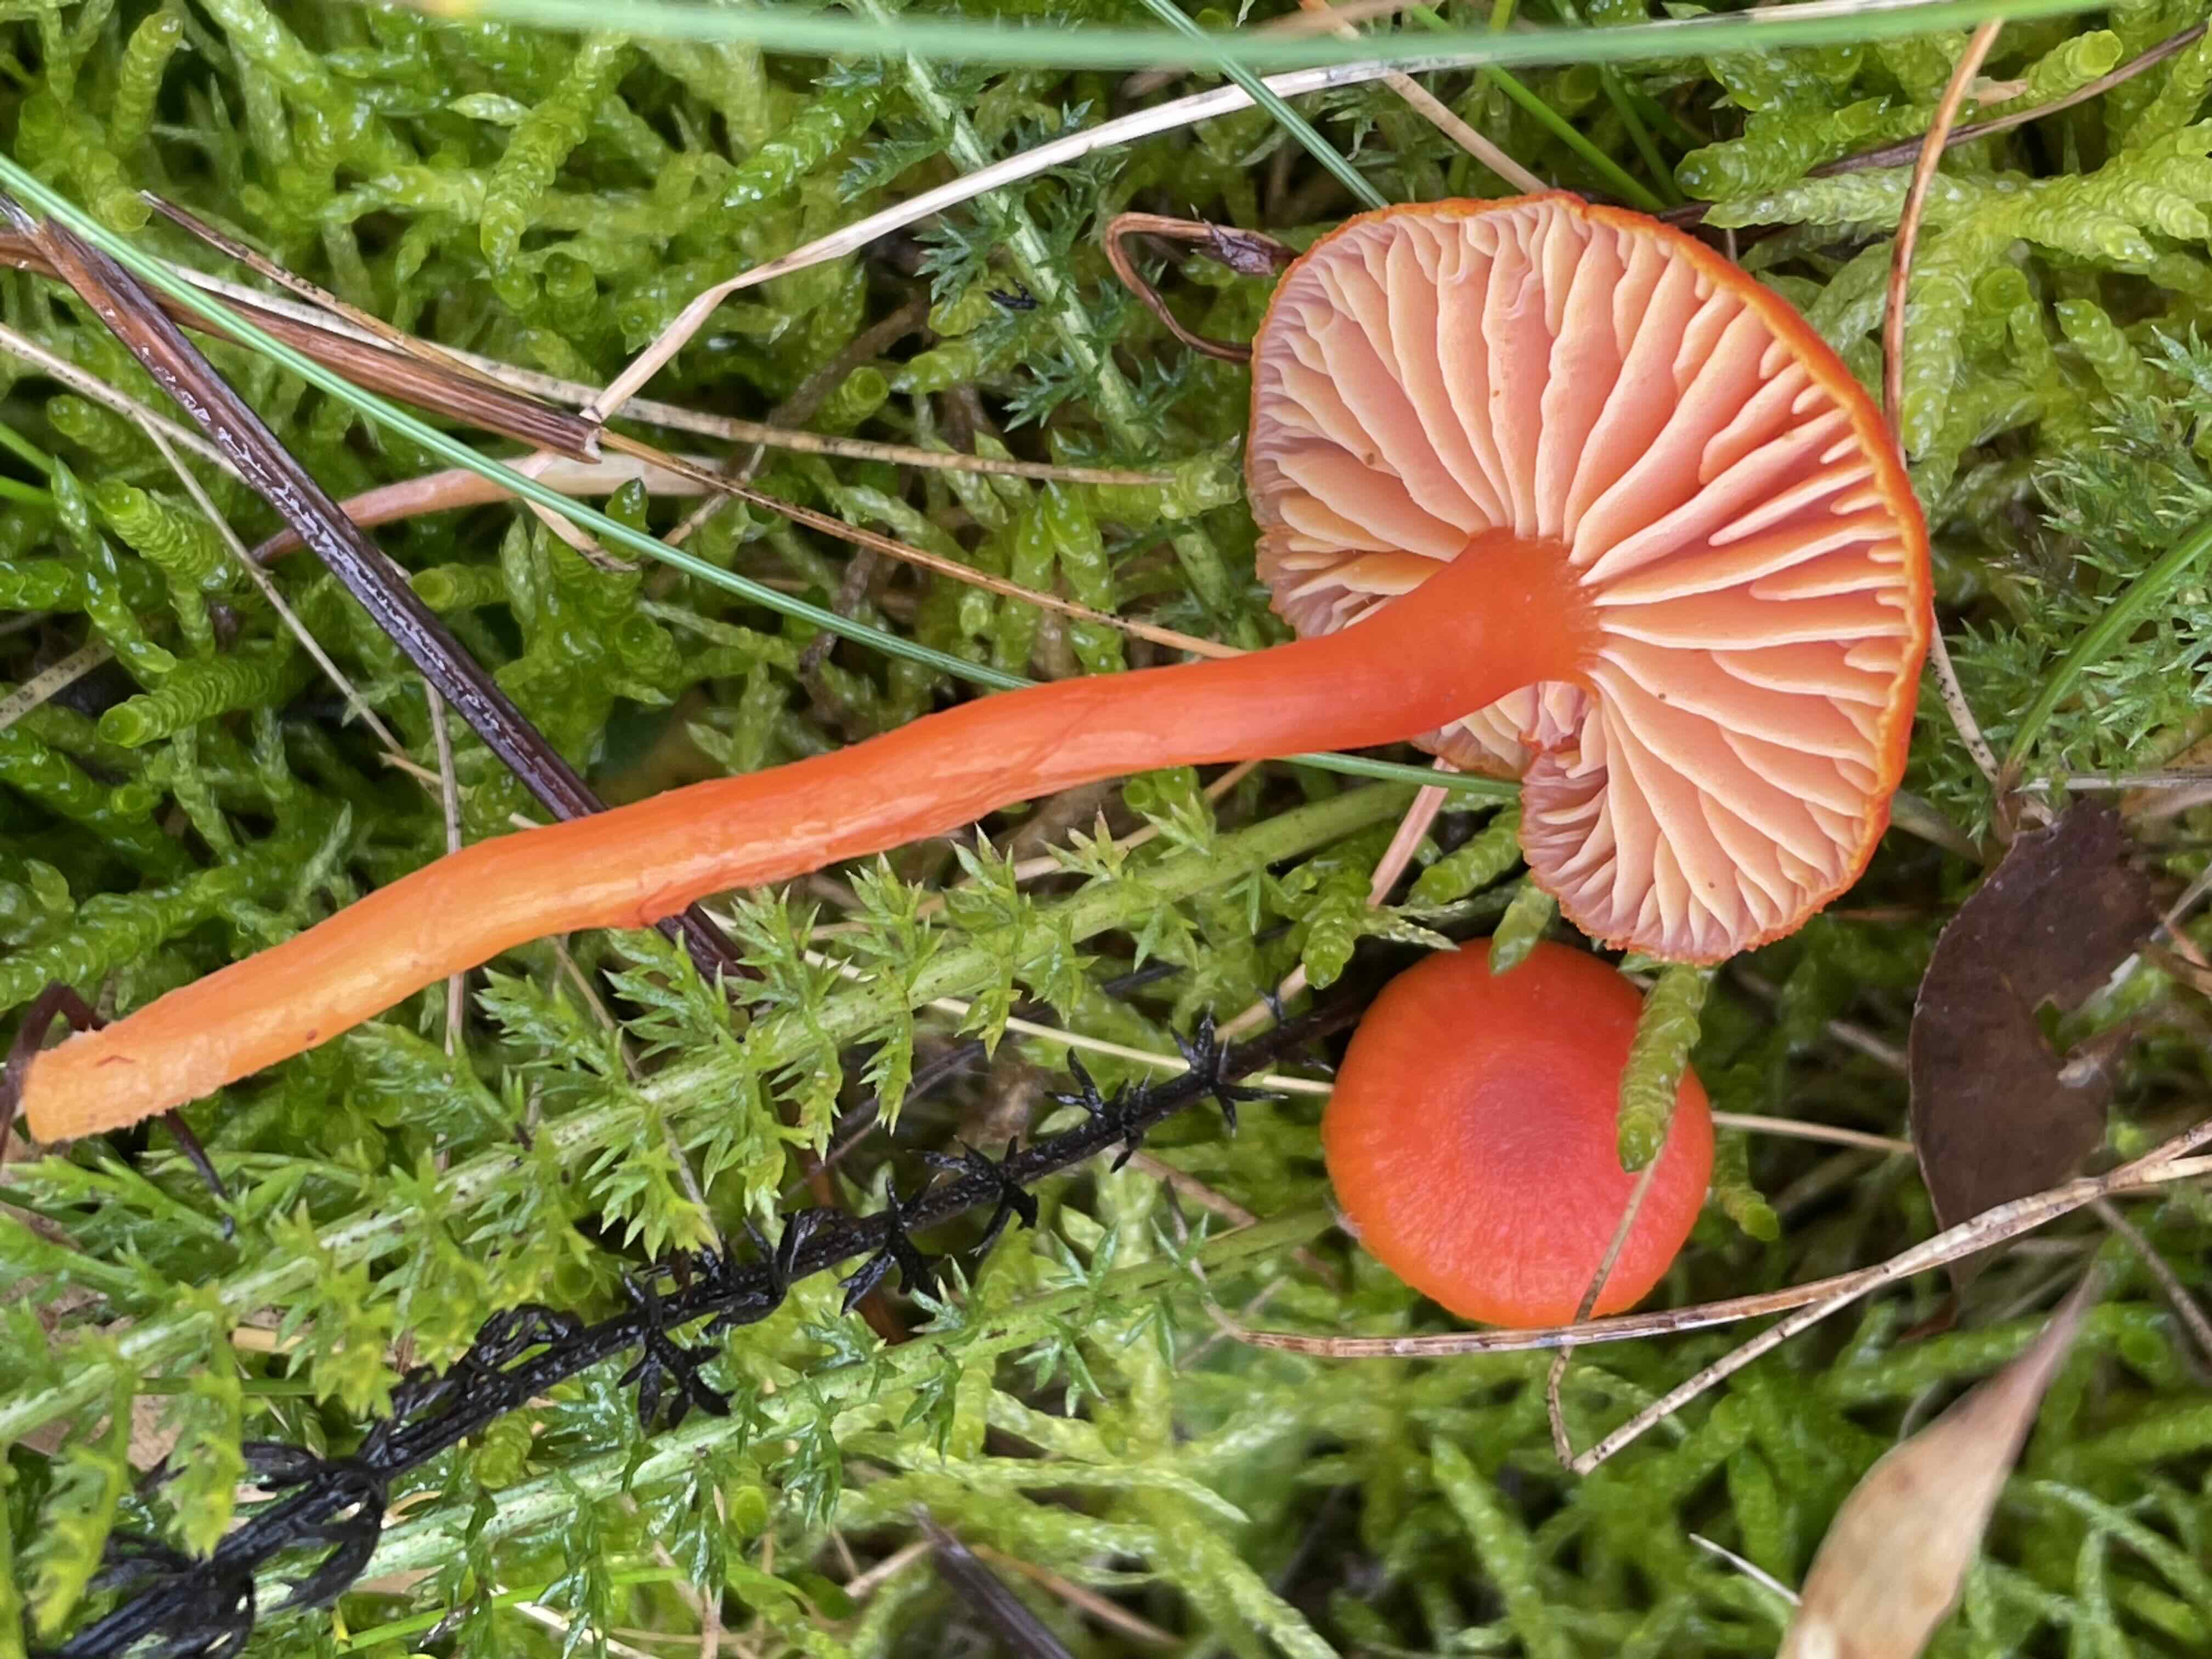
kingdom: Fungi
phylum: Basidiomycota
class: Agaricomycetes
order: Agaricales
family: Hygrophoraceae
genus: Hygrocybe
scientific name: Hygrocybe miniata
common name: mønje-vokshat
